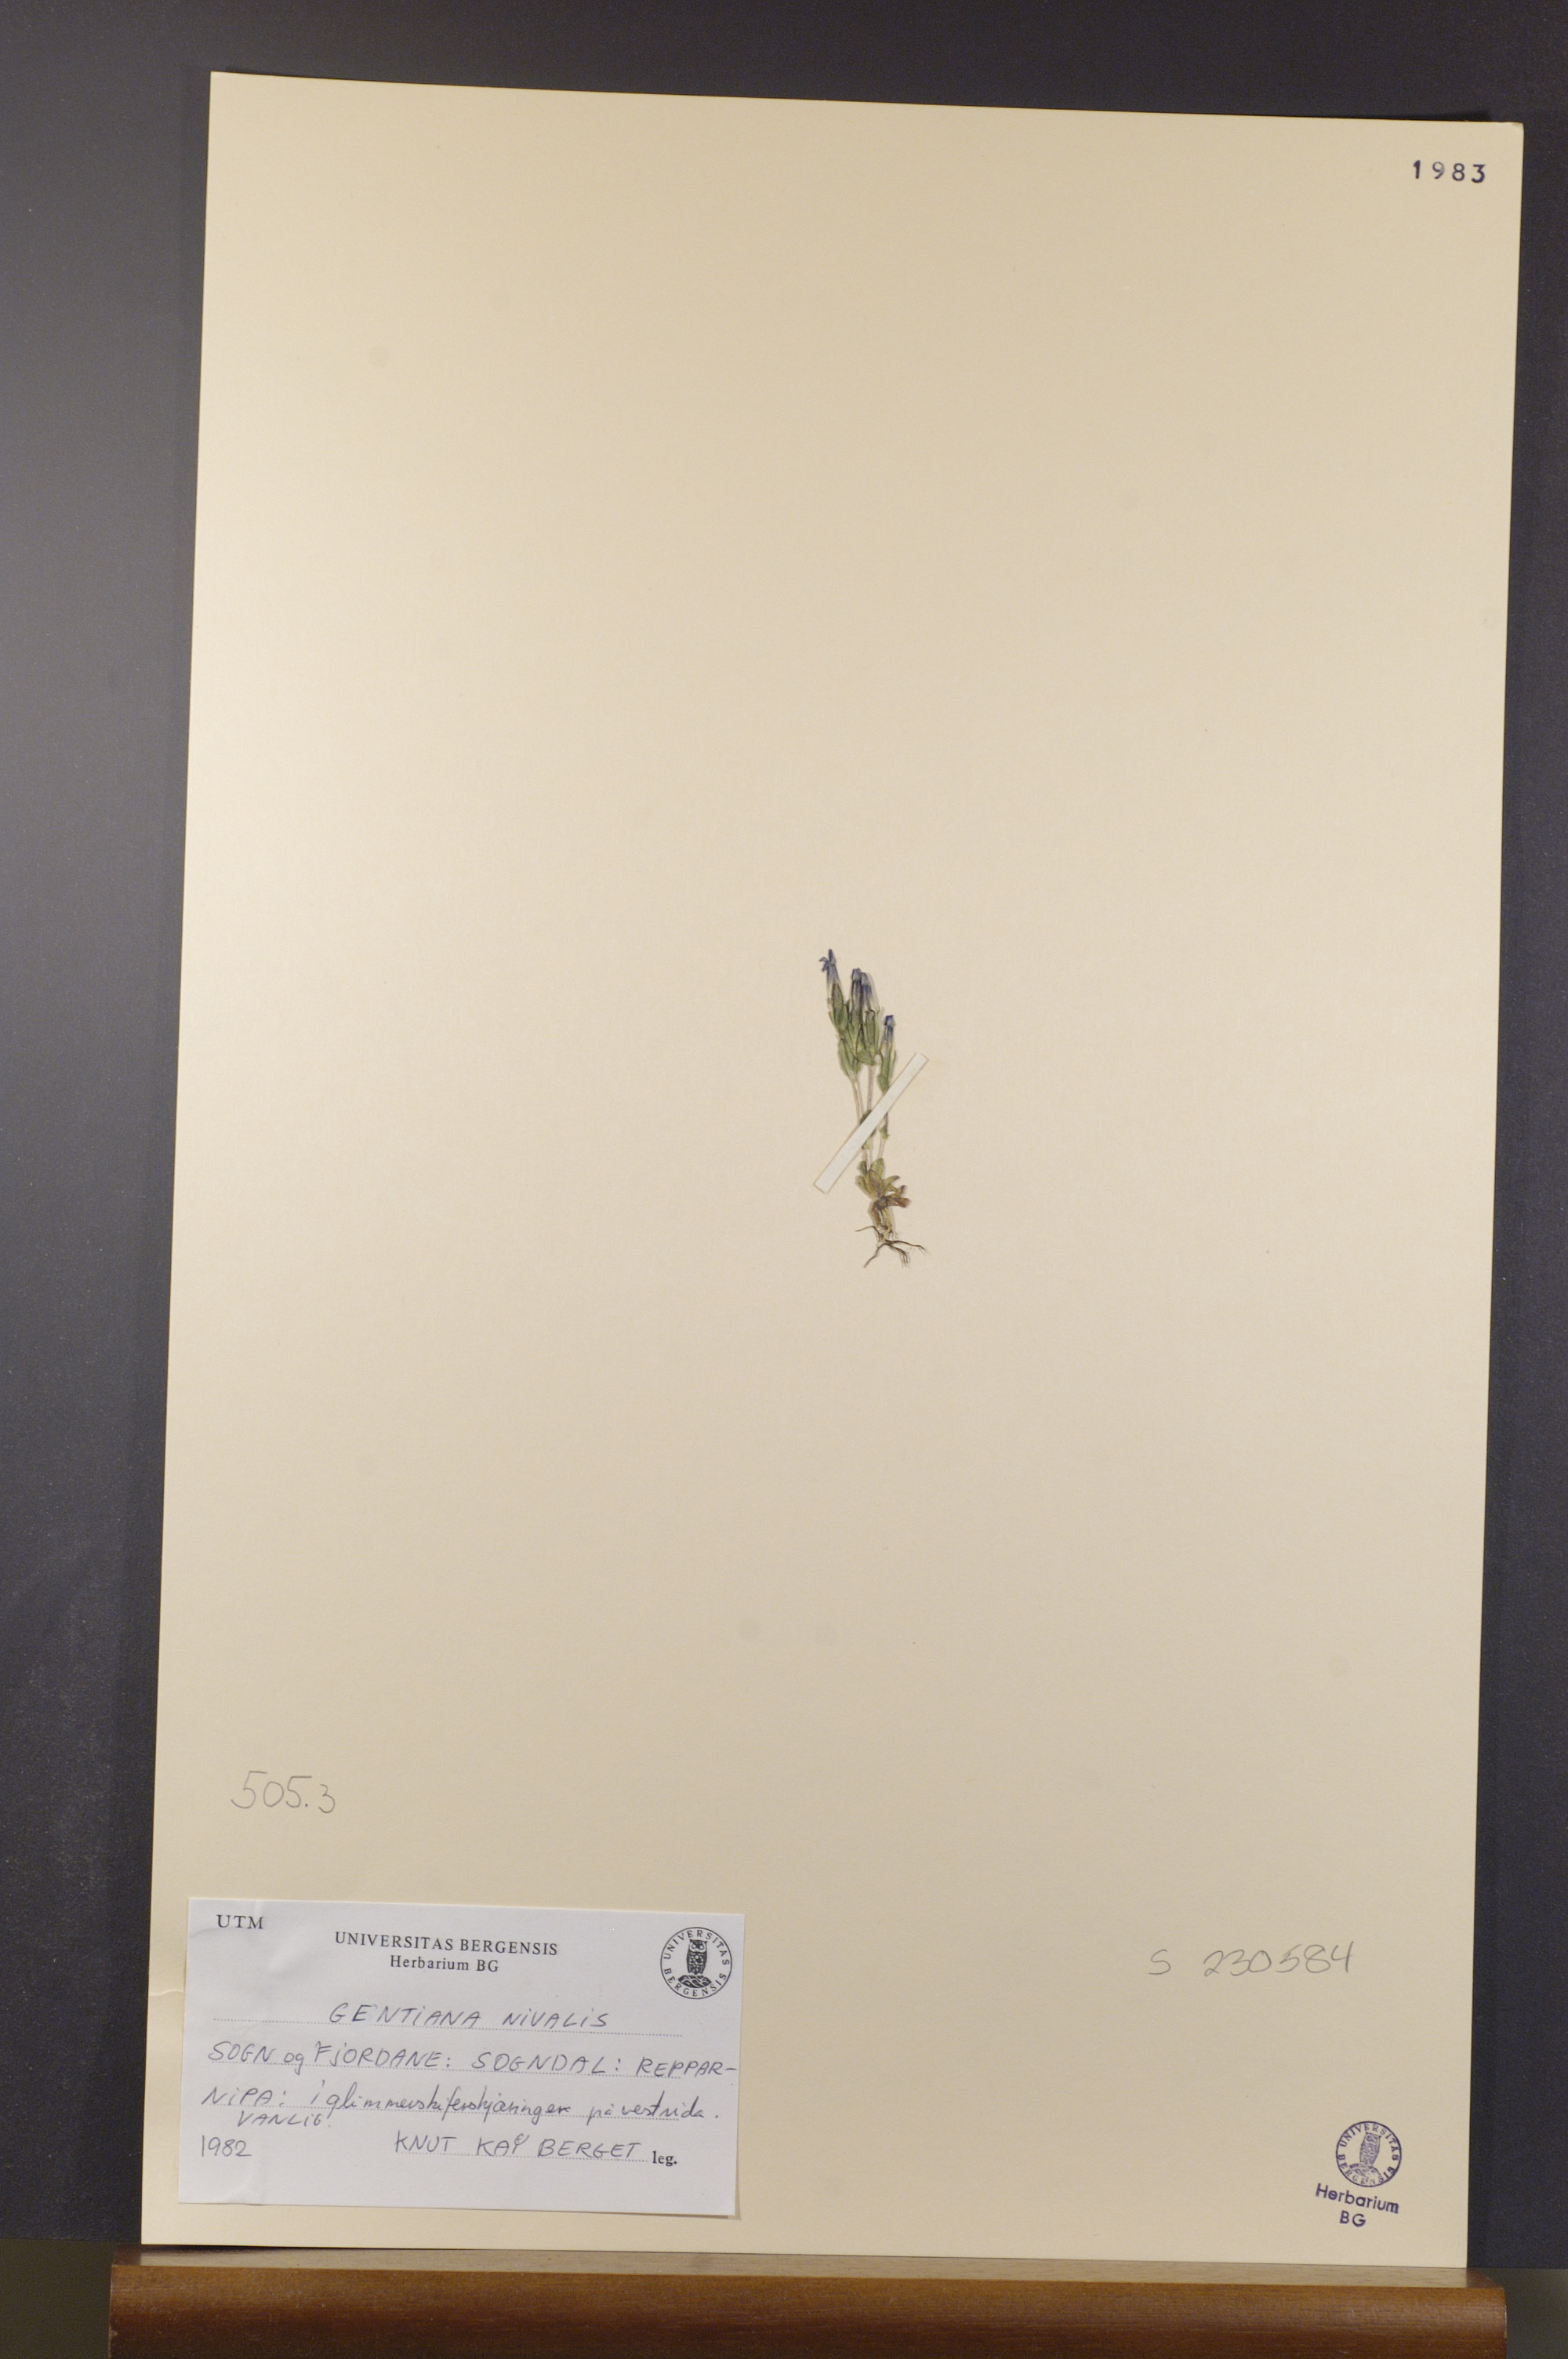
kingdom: Plantae
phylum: Tracheophyta
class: Magnoliopsida
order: Gentianales
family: Gentianaceae
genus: Gentiana
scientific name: Gentiana nivalis
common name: Alpine gentian
